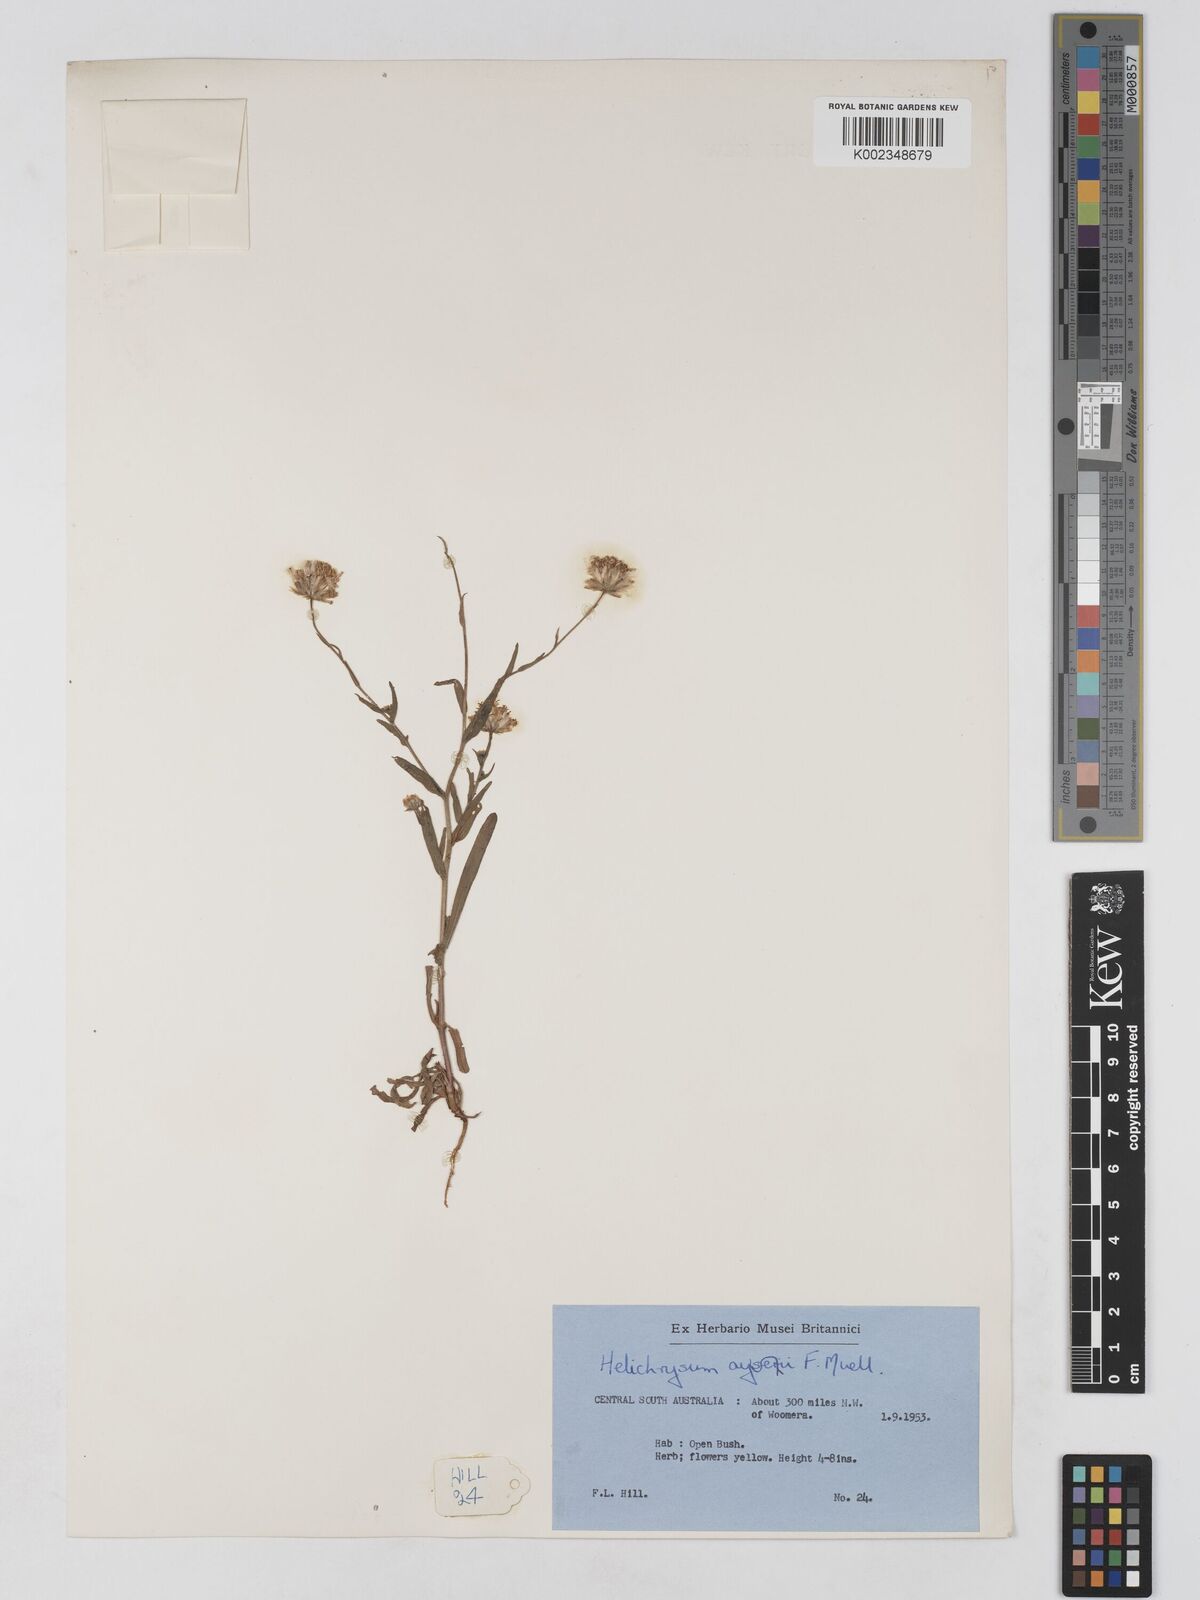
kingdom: Plantae
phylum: Tracheophyta
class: Magnoliopsida
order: Asterales
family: Asteraceae
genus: Schoenia
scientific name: Schoenia ayersii
